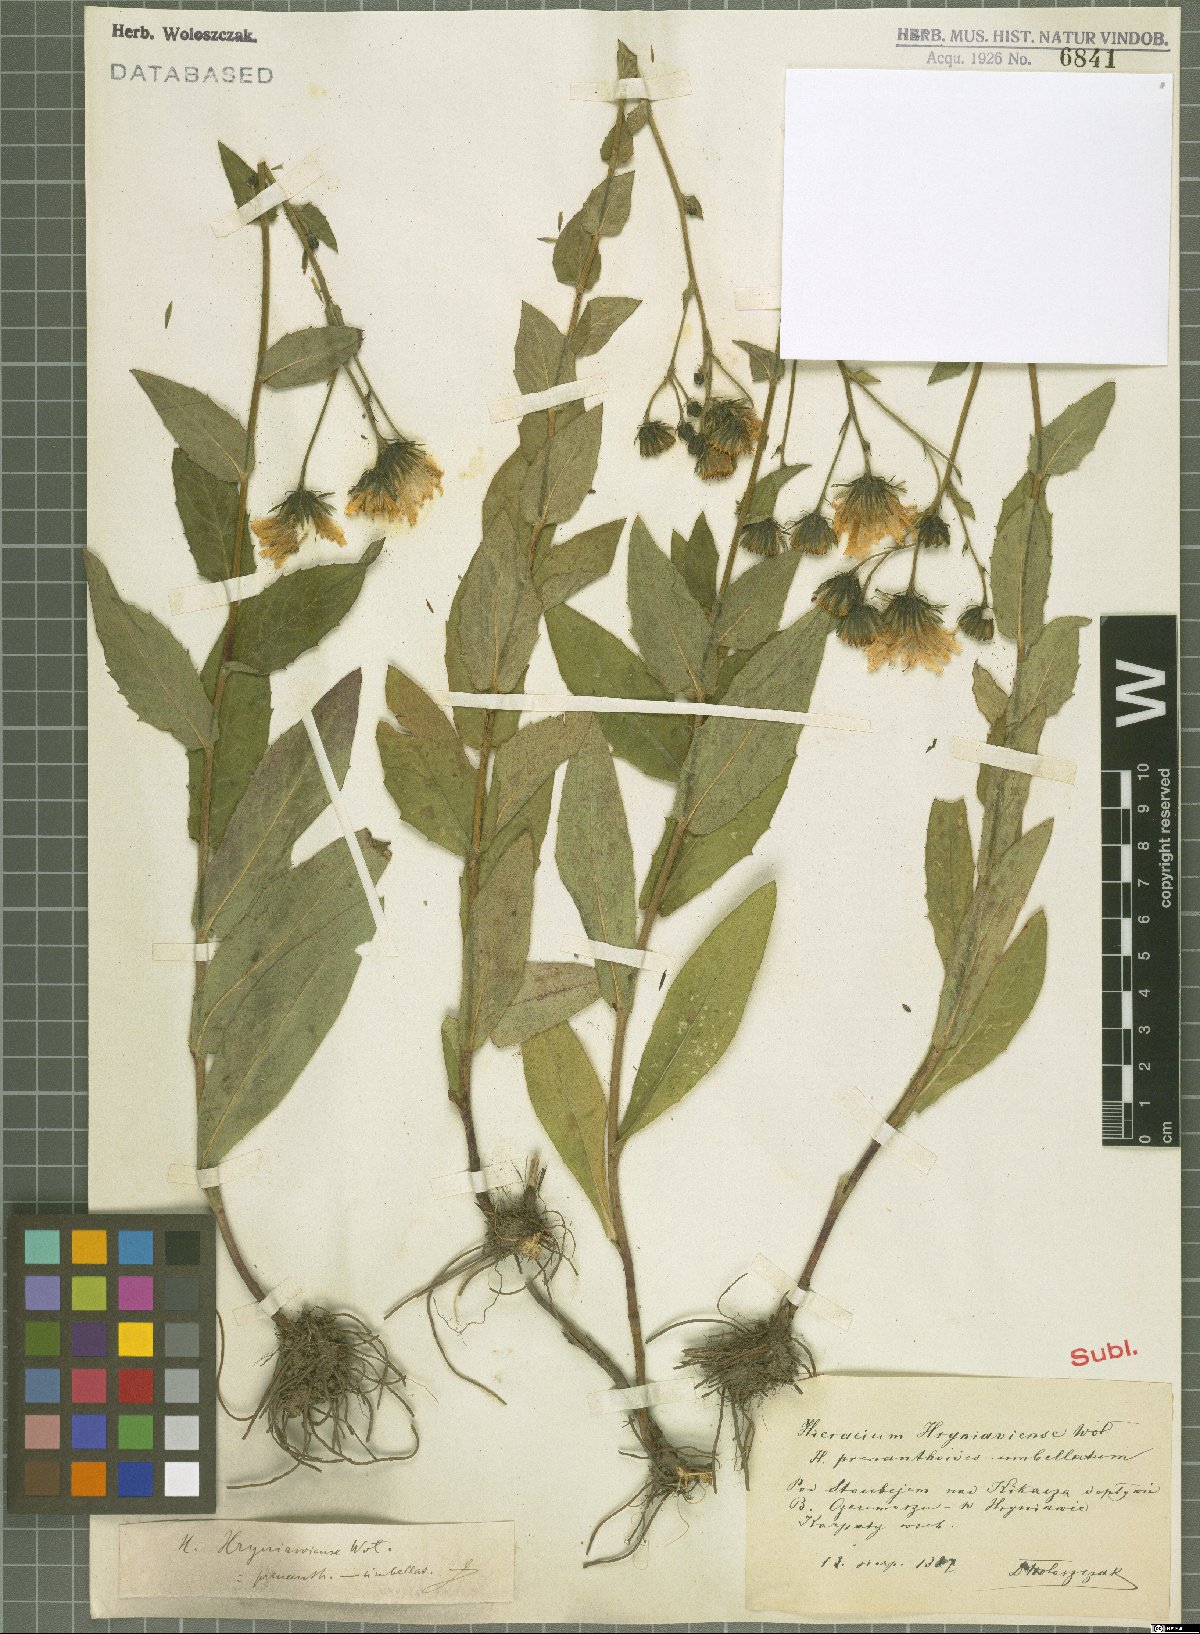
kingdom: Plantae
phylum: Tracheophyta
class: Magnoliopsida
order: Asterales
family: Asteraceae
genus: Hieracium
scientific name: Hieracium raddeanum
